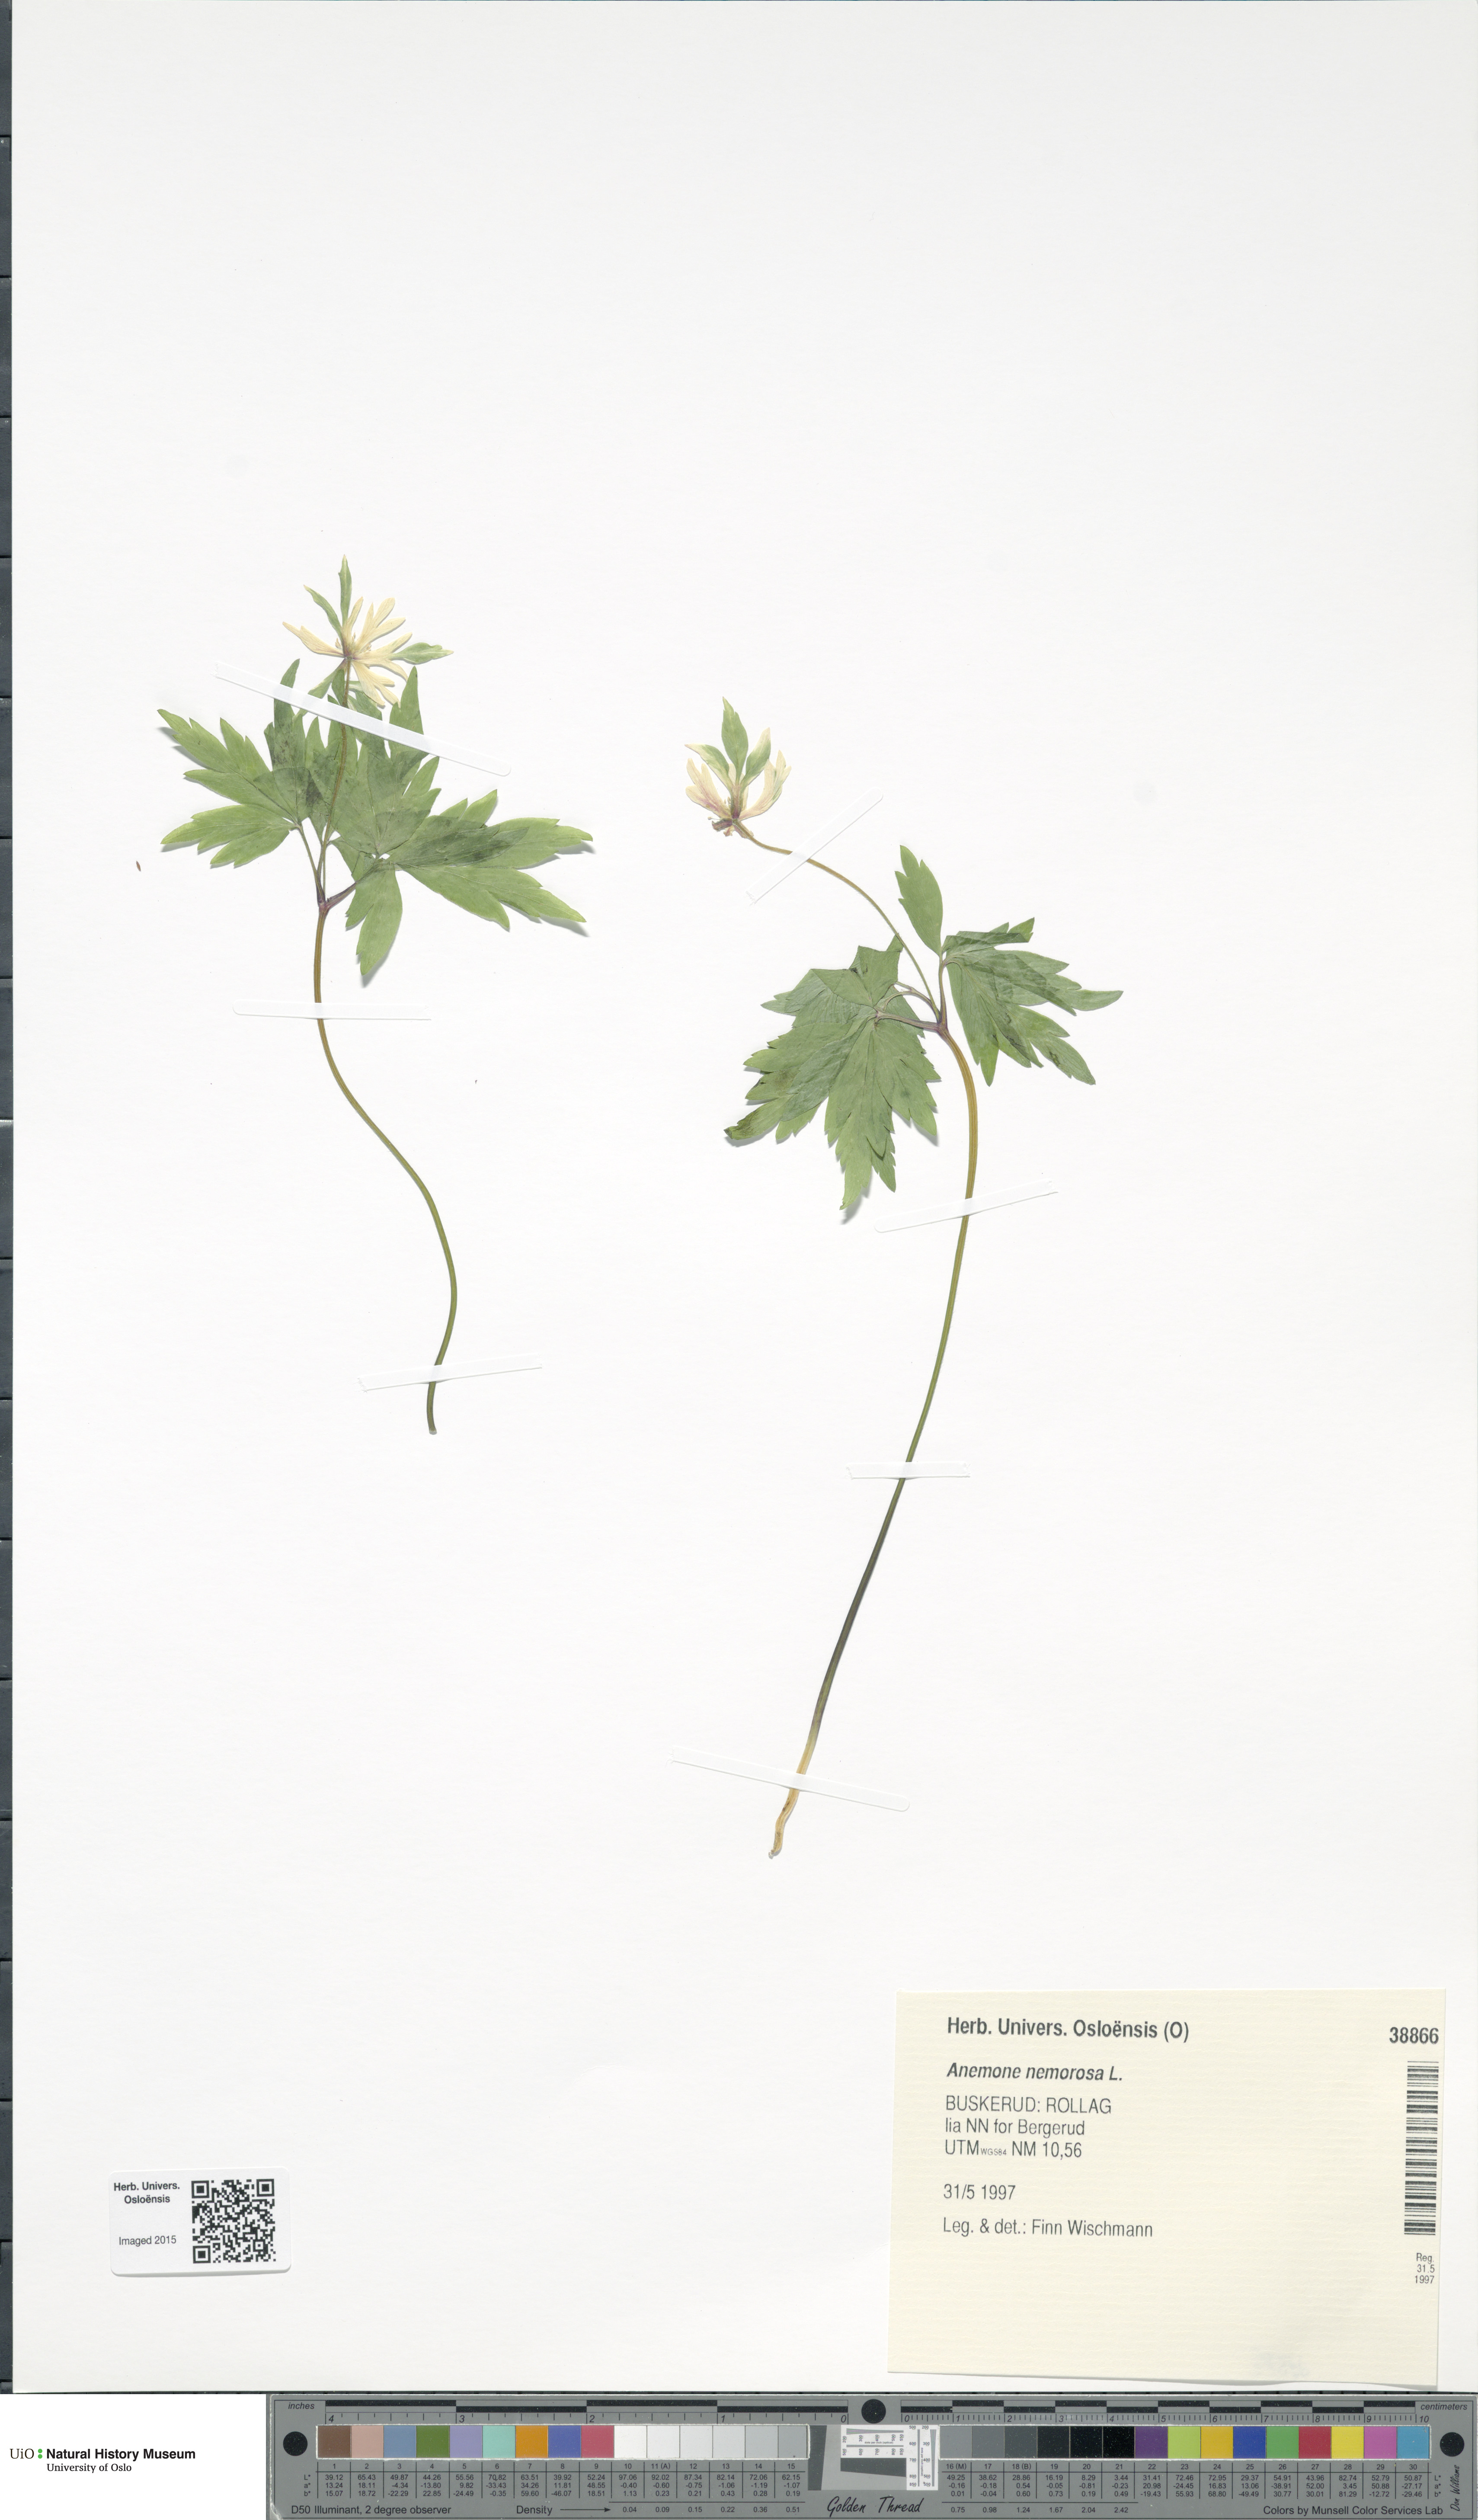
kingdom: Plantae
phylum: Tracheophyta
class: Magnoliopsida
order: Ranunculales
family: Ranunculaceae
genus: Anemone
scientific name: Anemone nemorosa
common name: Wood anemone
